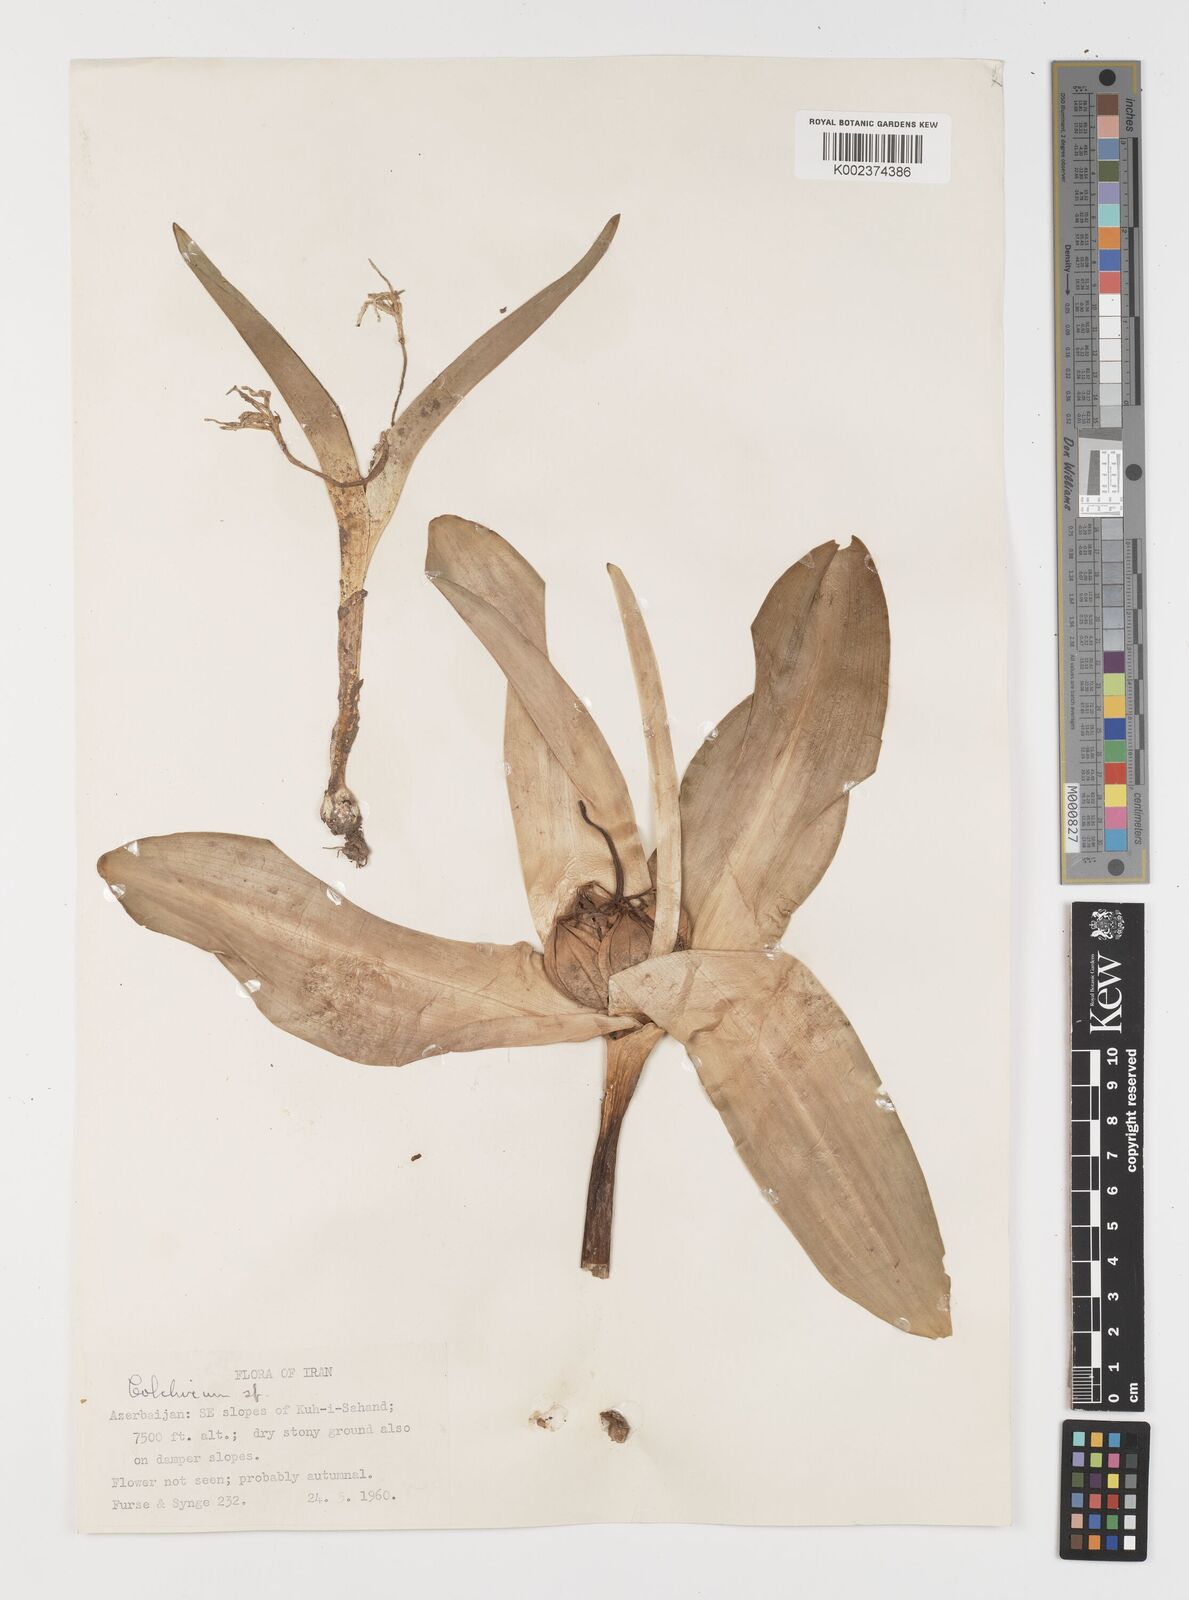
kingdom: Plantae
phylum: Tracheophyta
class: Liliopsida
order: Liliales
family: Colchicaceae
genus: Colchicum
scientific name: Colchicum
